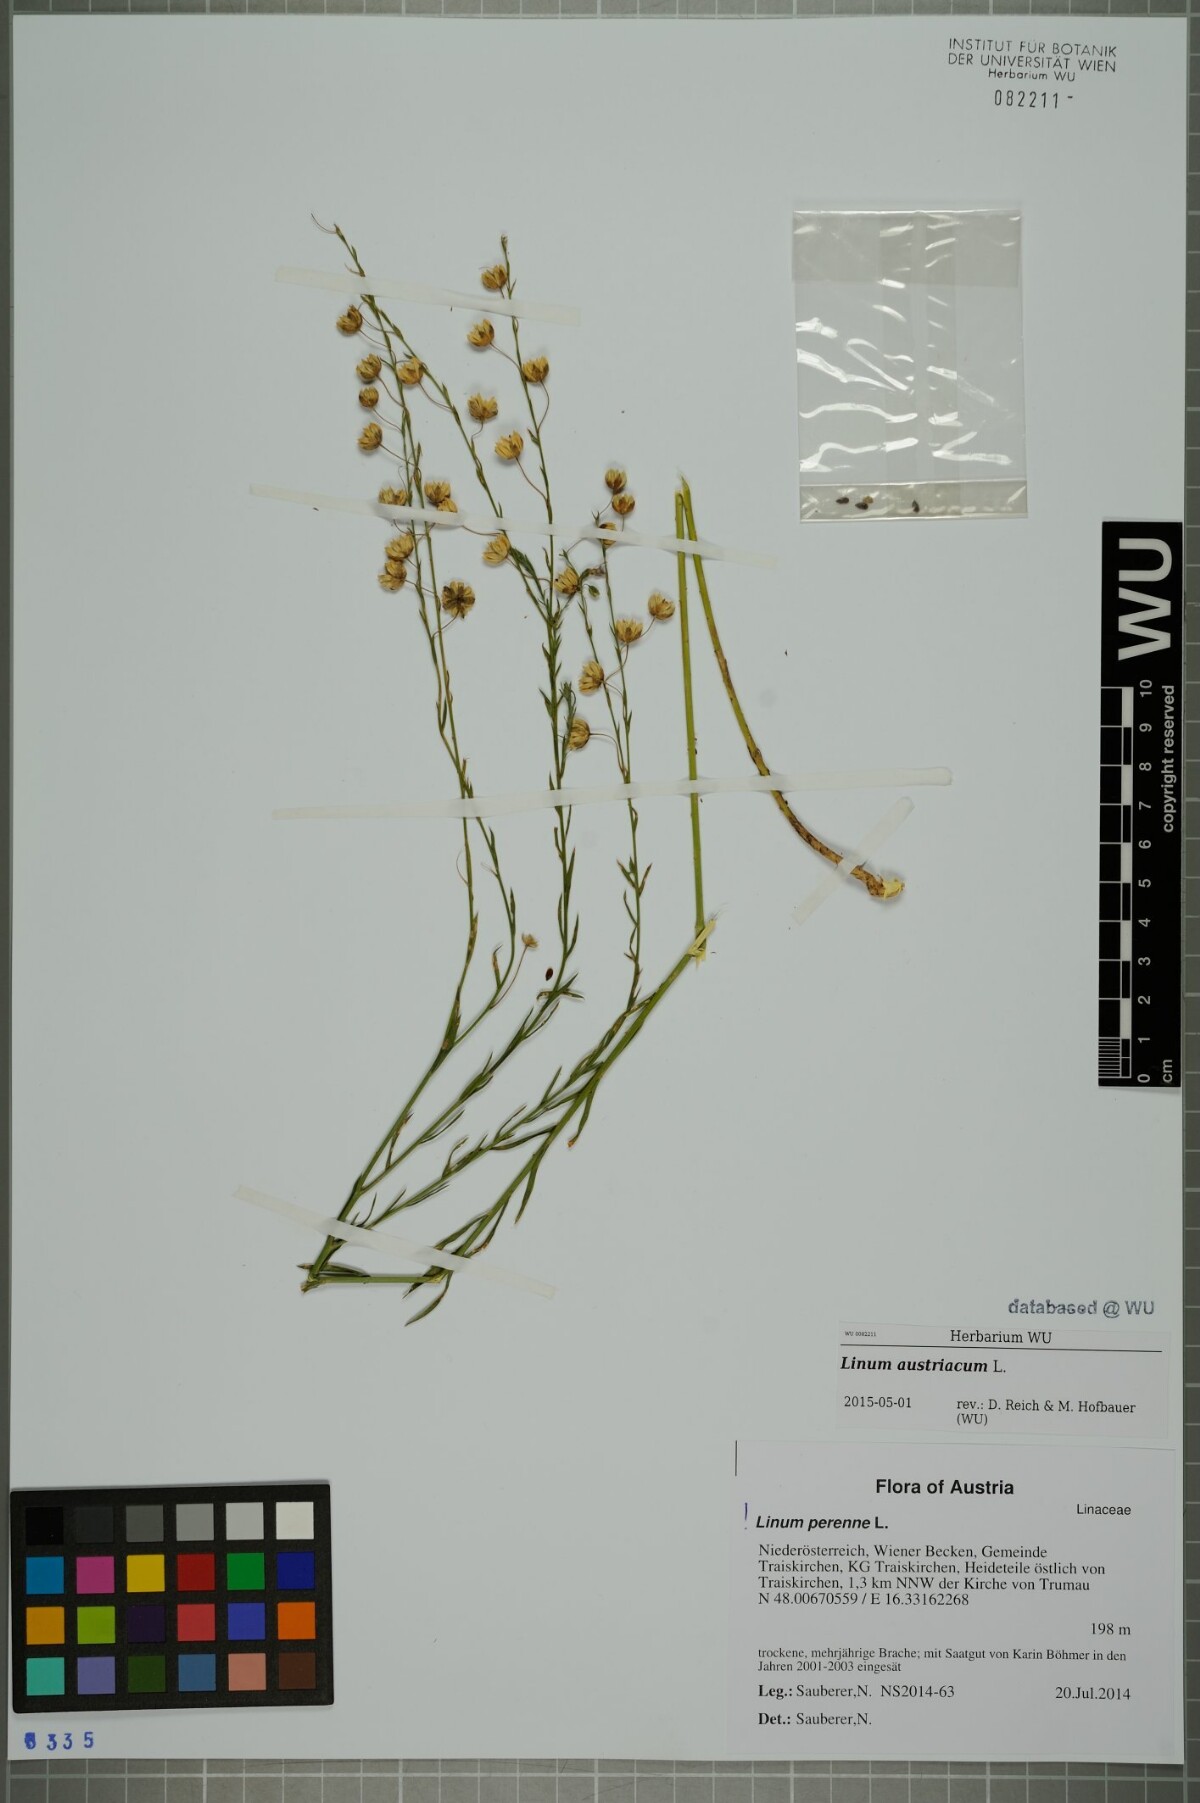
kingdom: Plantae
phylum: Tracheophyta
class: Magnoliopsida
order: Malpighiales
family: Linaceae
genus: Linum
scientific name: Linum austriacum
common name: Austrian flax
